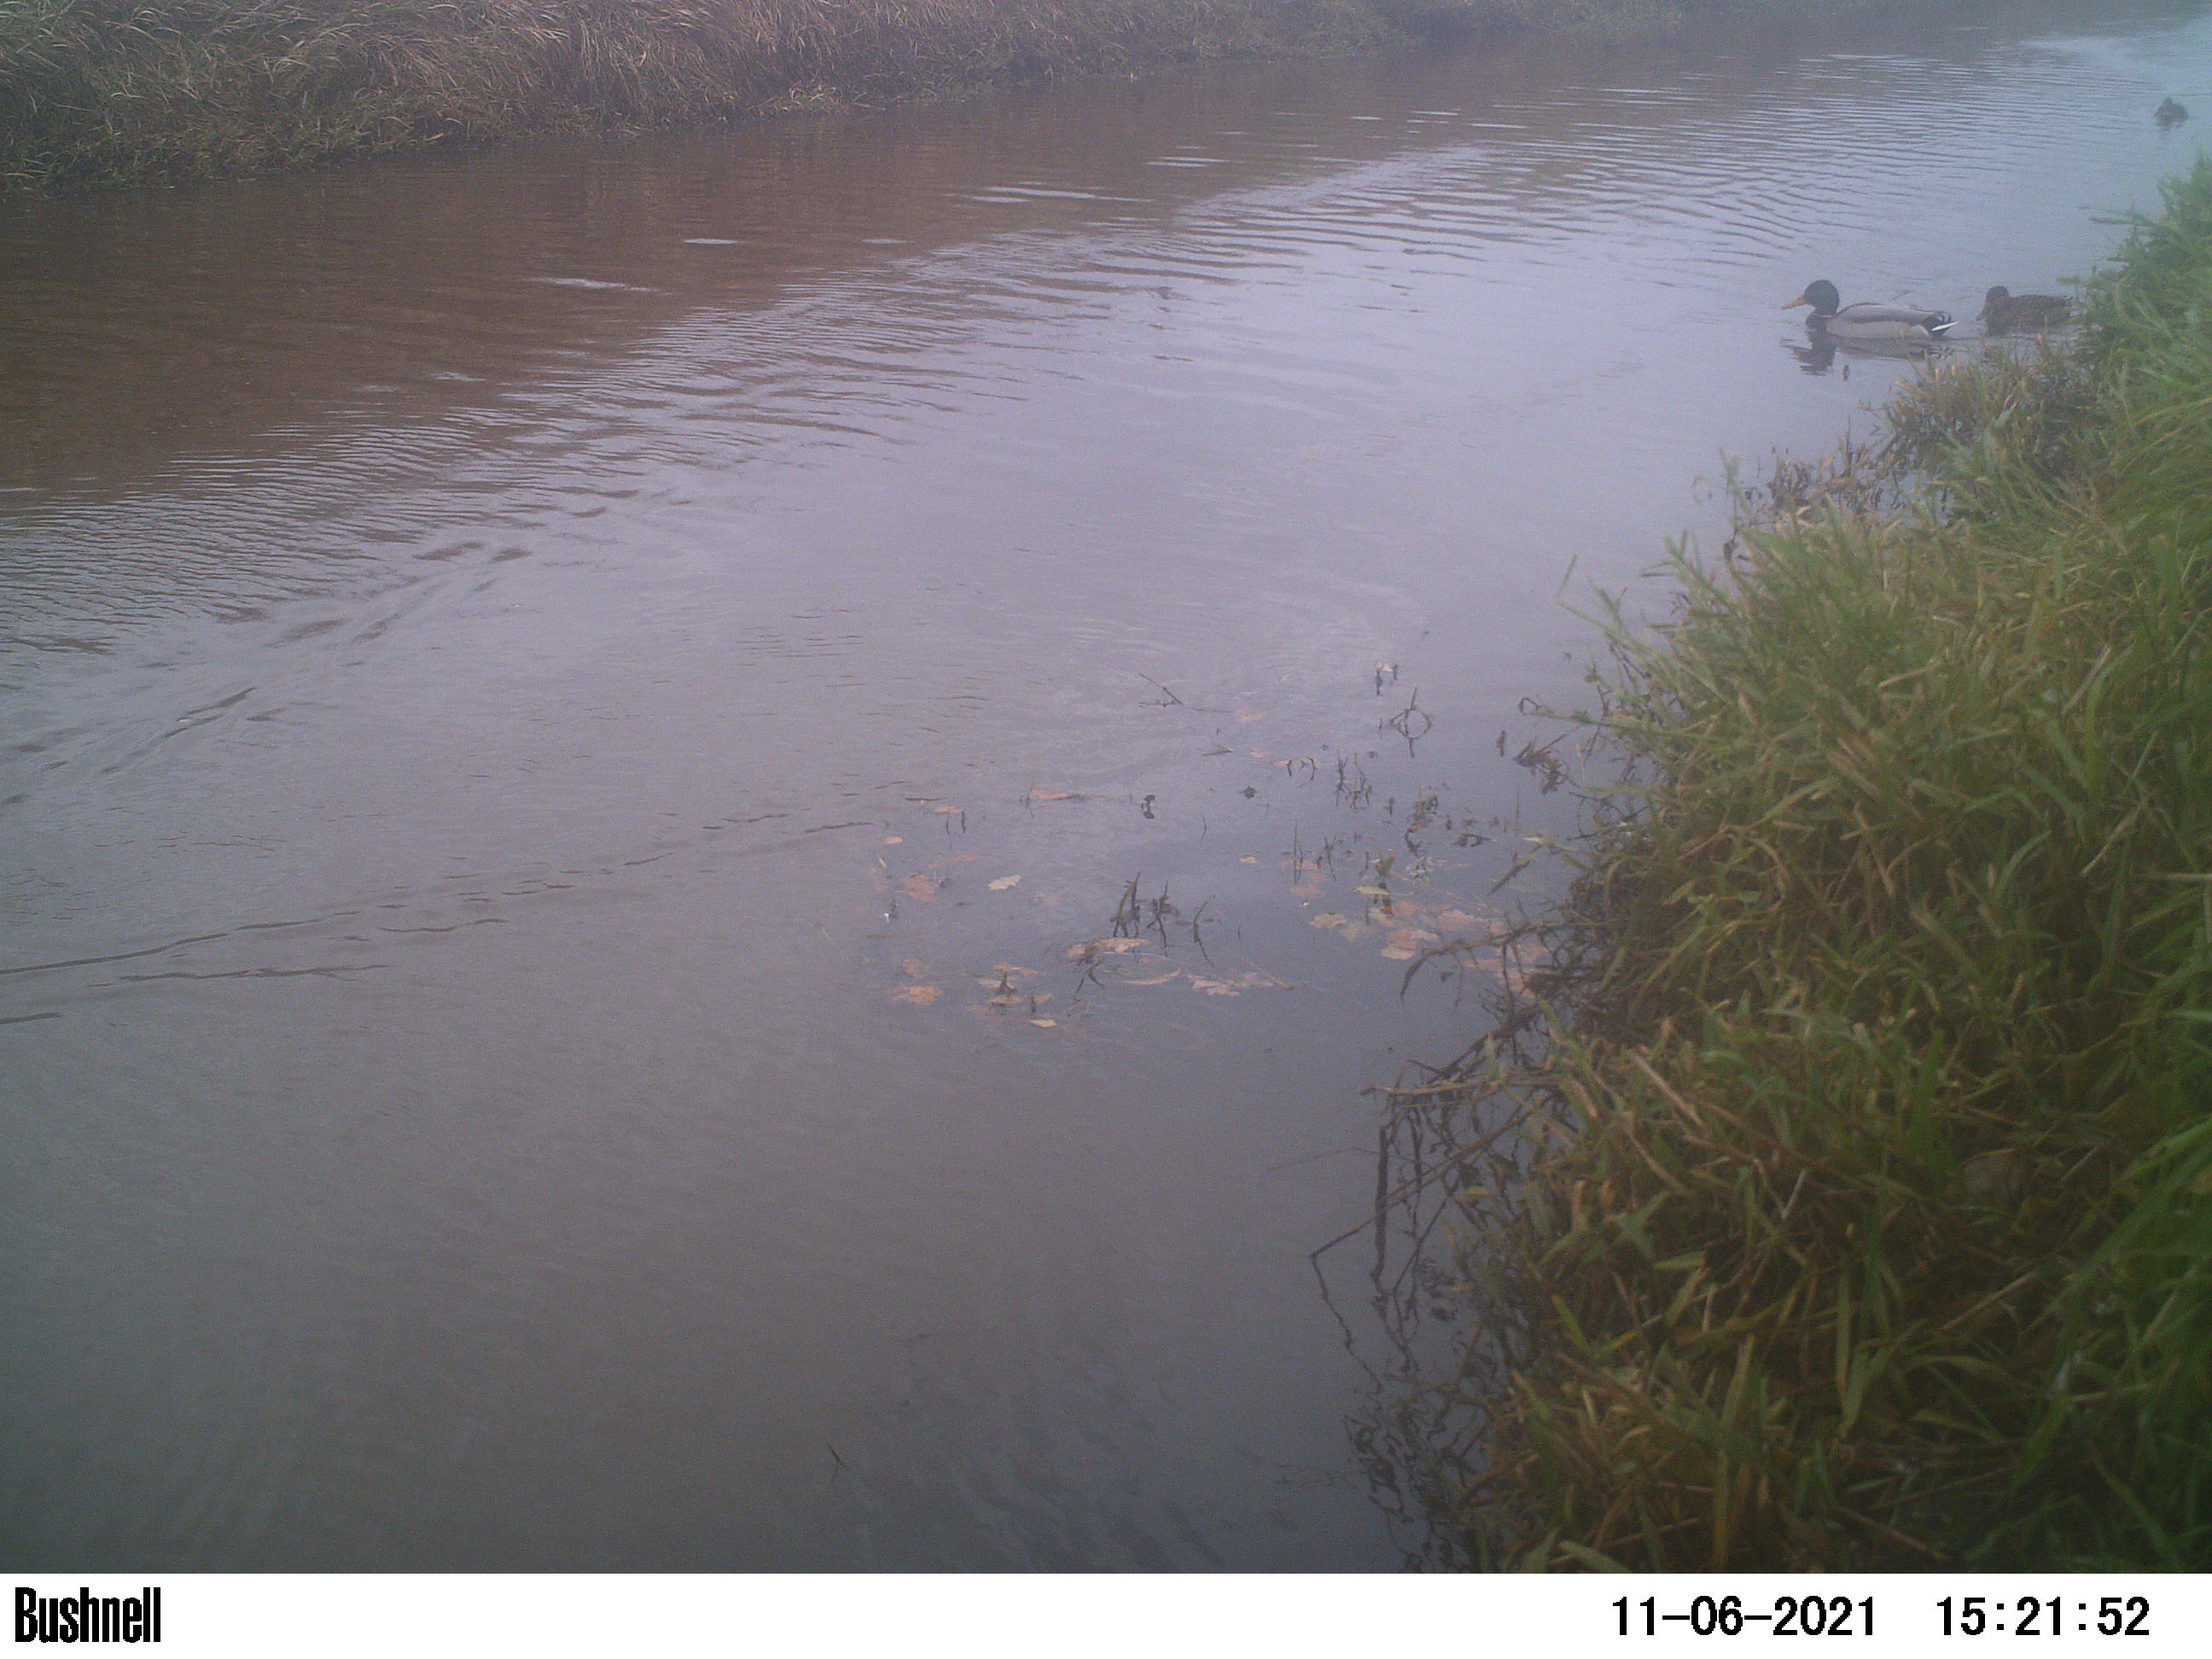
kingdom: Animalia
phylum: Chordata
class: Aves
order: Anseriformes
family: Anatidae
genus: Anas
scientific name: Anas platyrhynchos
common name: Mallard
